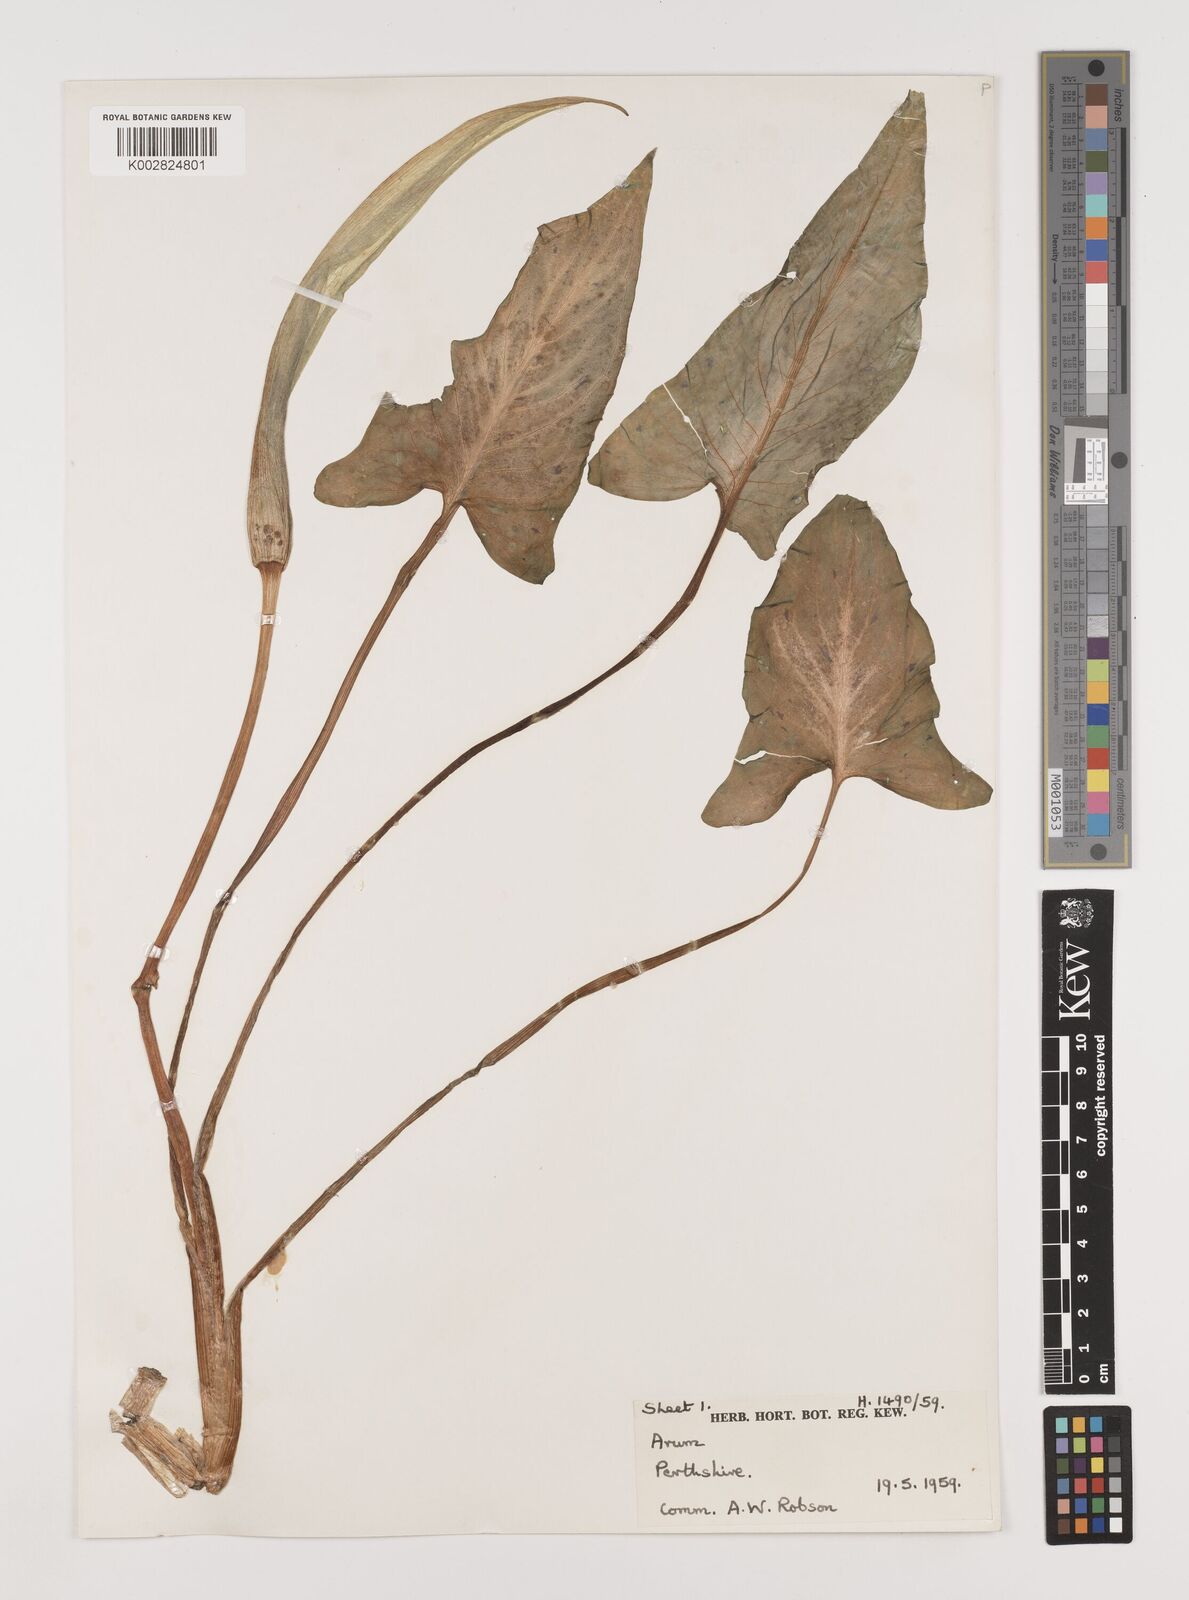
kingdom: Plantae
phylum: Tracheophyta
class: Liliopsida
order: Alismatales
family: Araceae
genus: Arum
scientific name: Arum maculatum
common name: Lords-and-ladies
